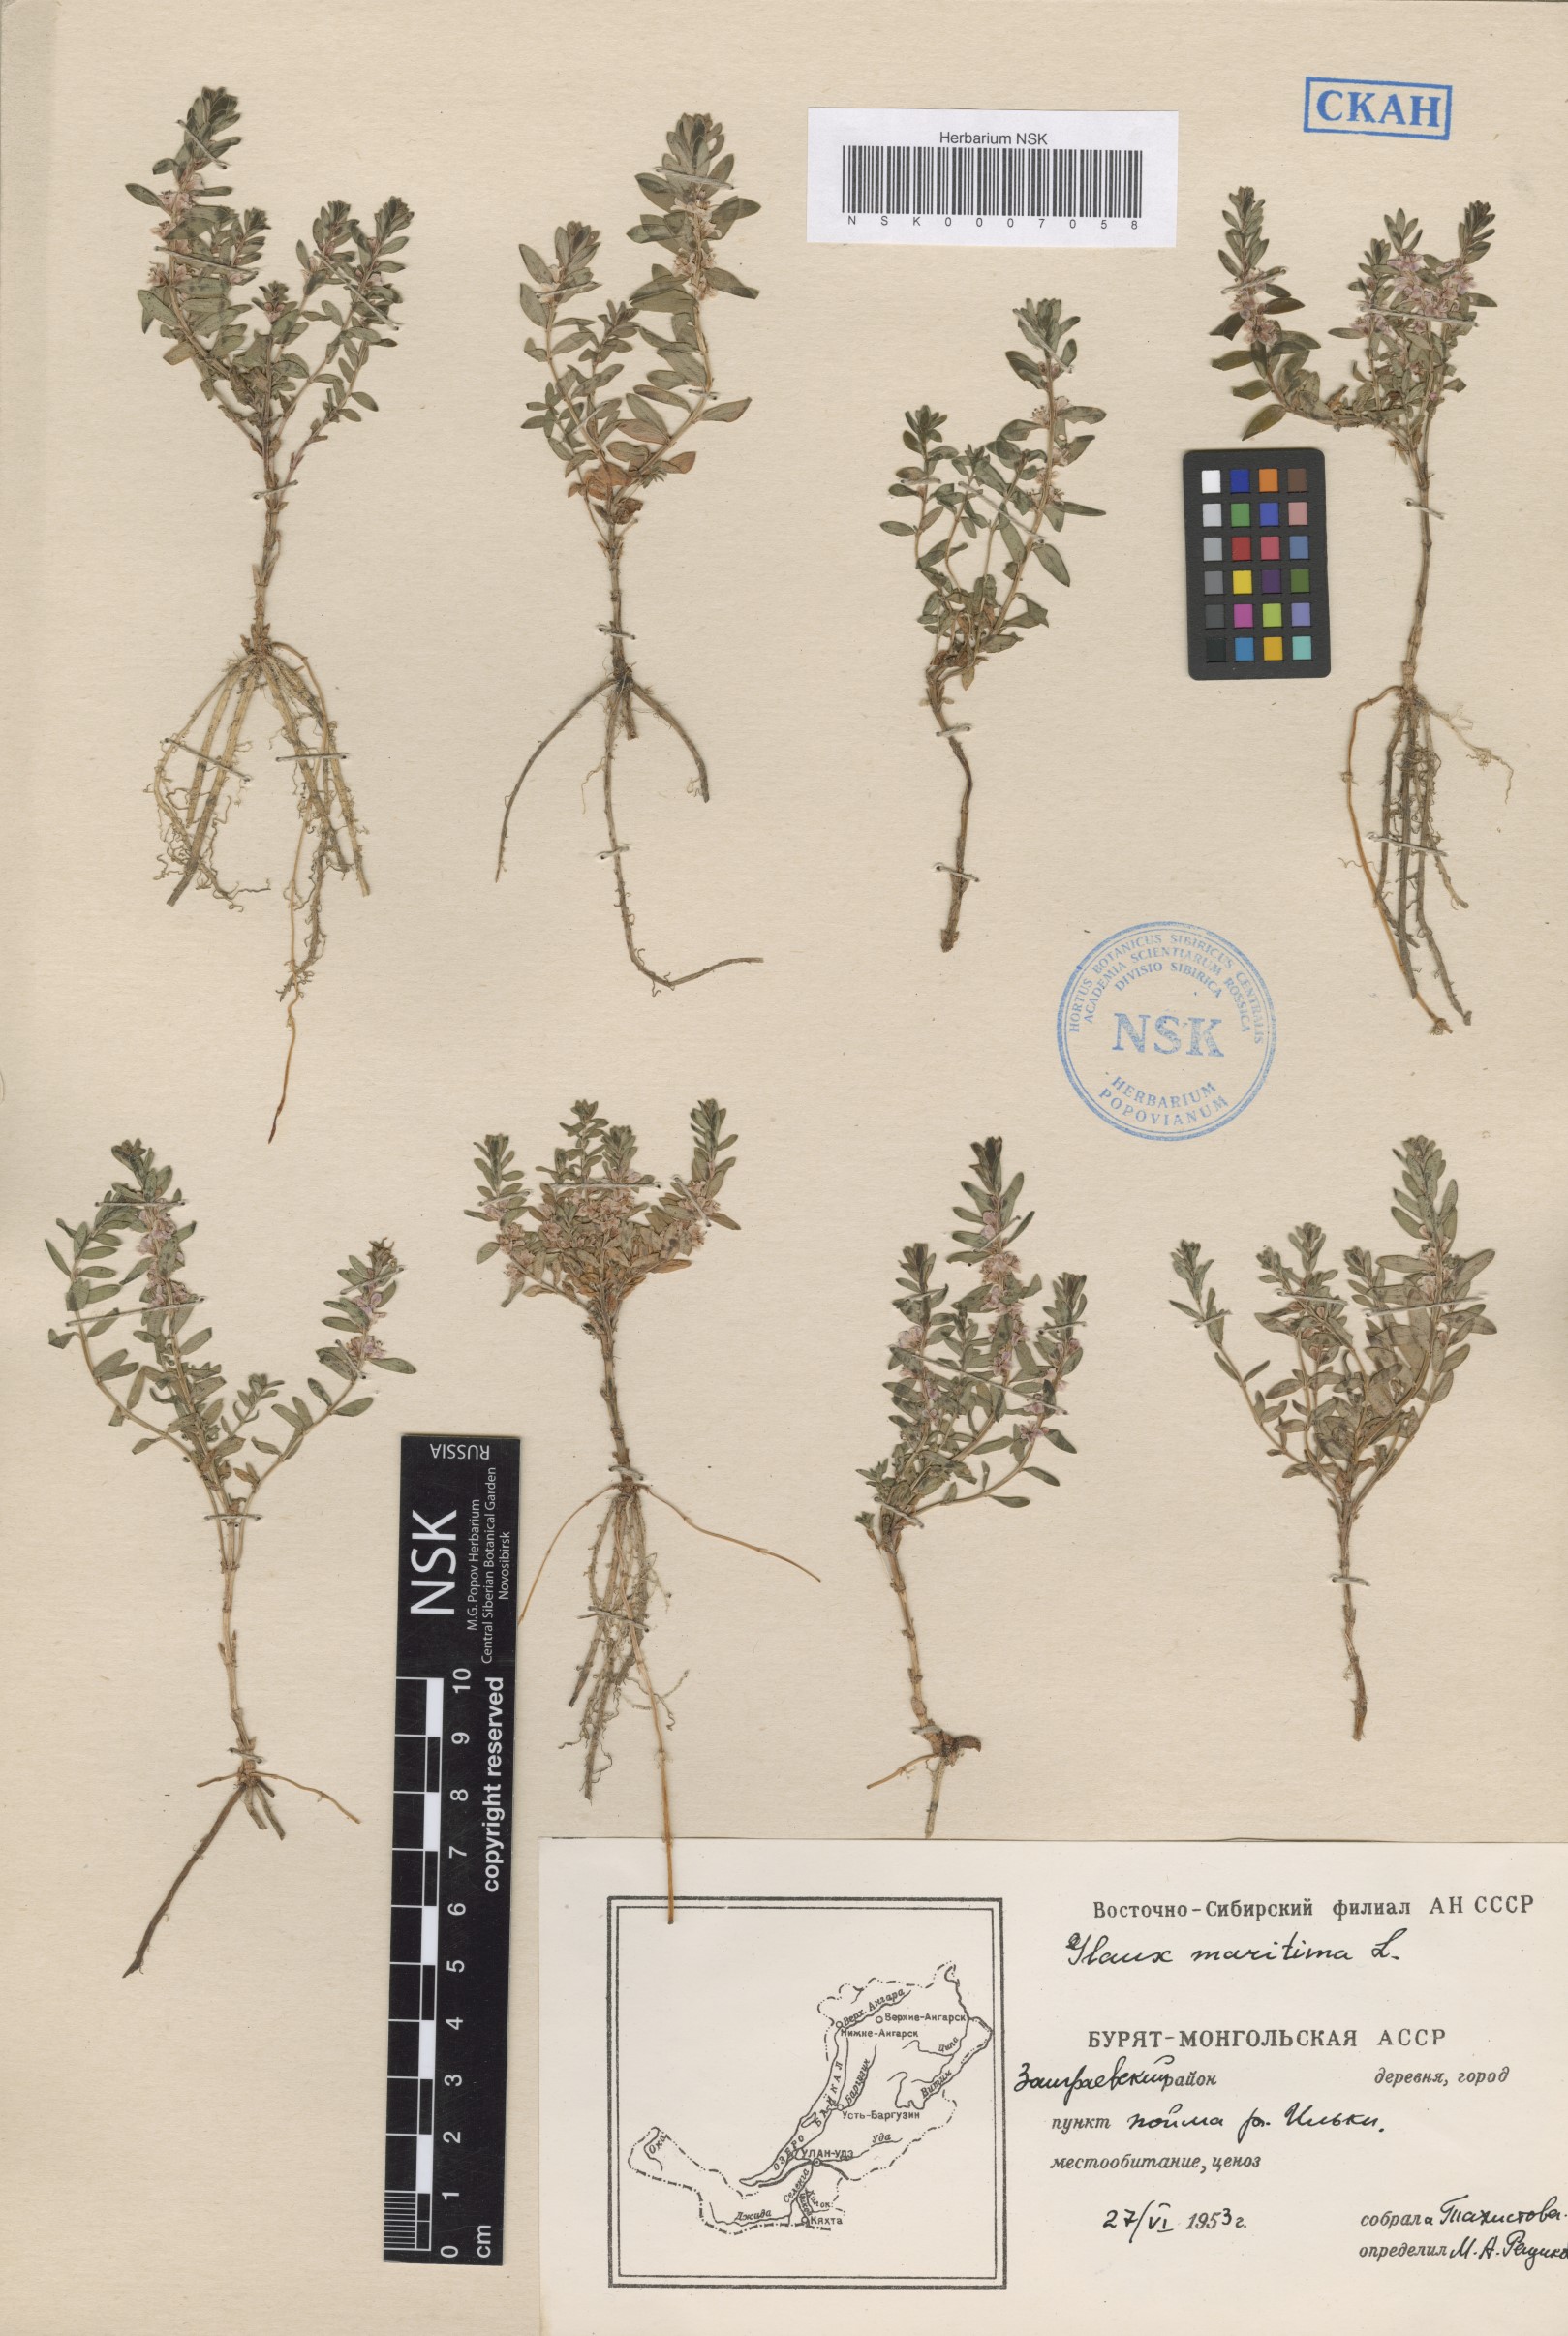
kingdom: Plantae
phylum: Tracheophyta
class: Magnoliopsida
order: Ericales
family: Primulaceae
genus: Lysimachia
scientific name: Lysimachia maritima
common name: Sea milkwort
